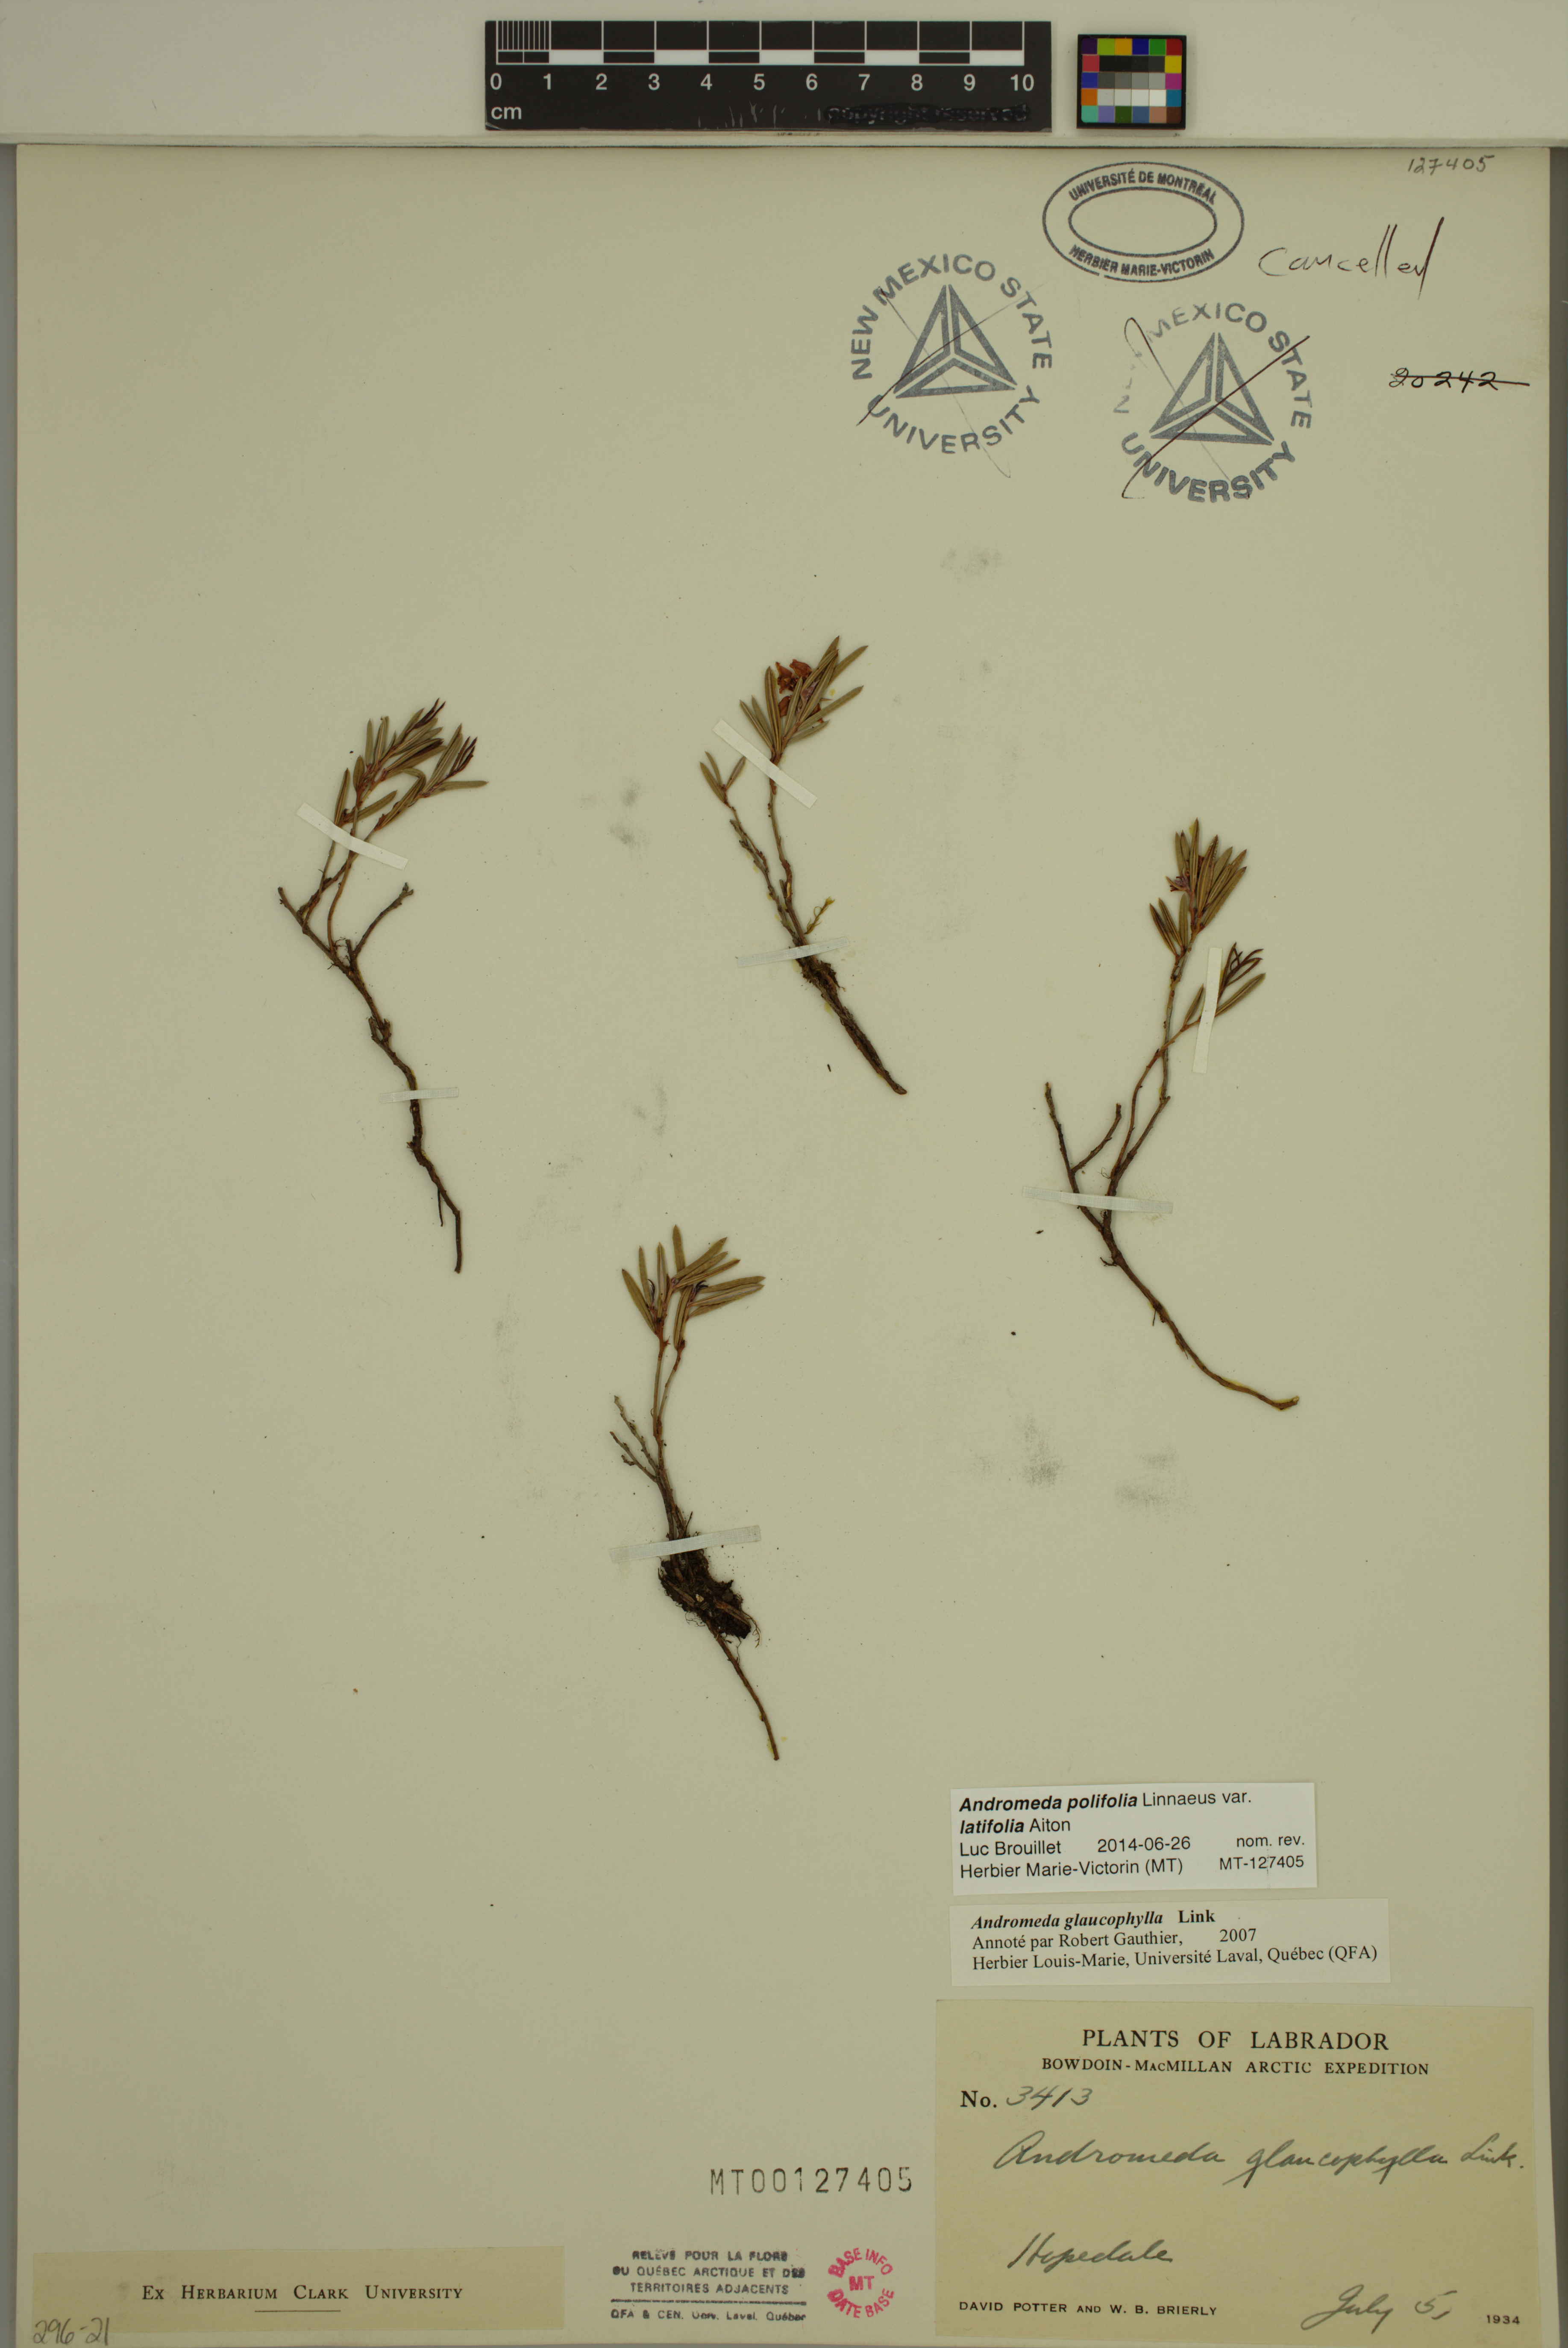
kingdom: Plantae
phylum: Tracheophyta
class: Magnoliopsida
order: Ericales
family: Ericaceae
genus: Andromeda
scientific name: Andromeda polifolia
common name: Bog-rosemary
